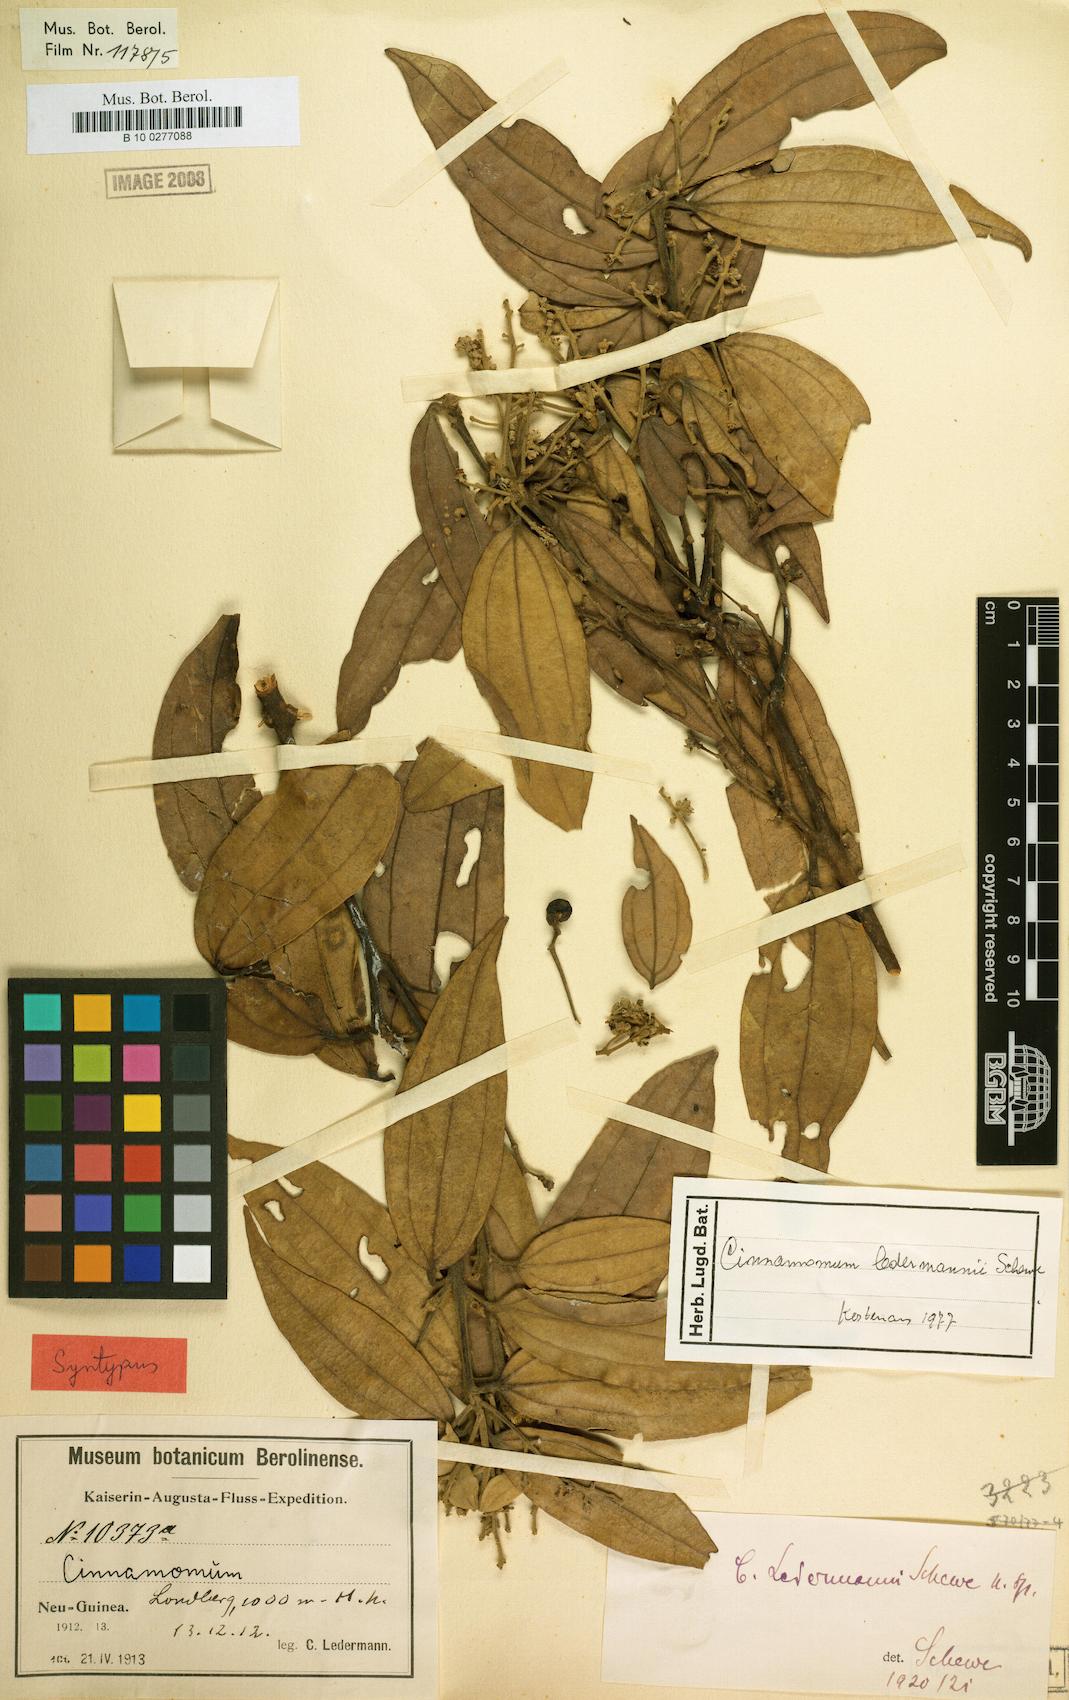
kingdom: Plantae
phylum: Tracheophyta
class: Magnoliopsida
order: Laurales
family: Lauraceae
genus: Cinnamomum
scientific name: Cinnamomum ledermannii
